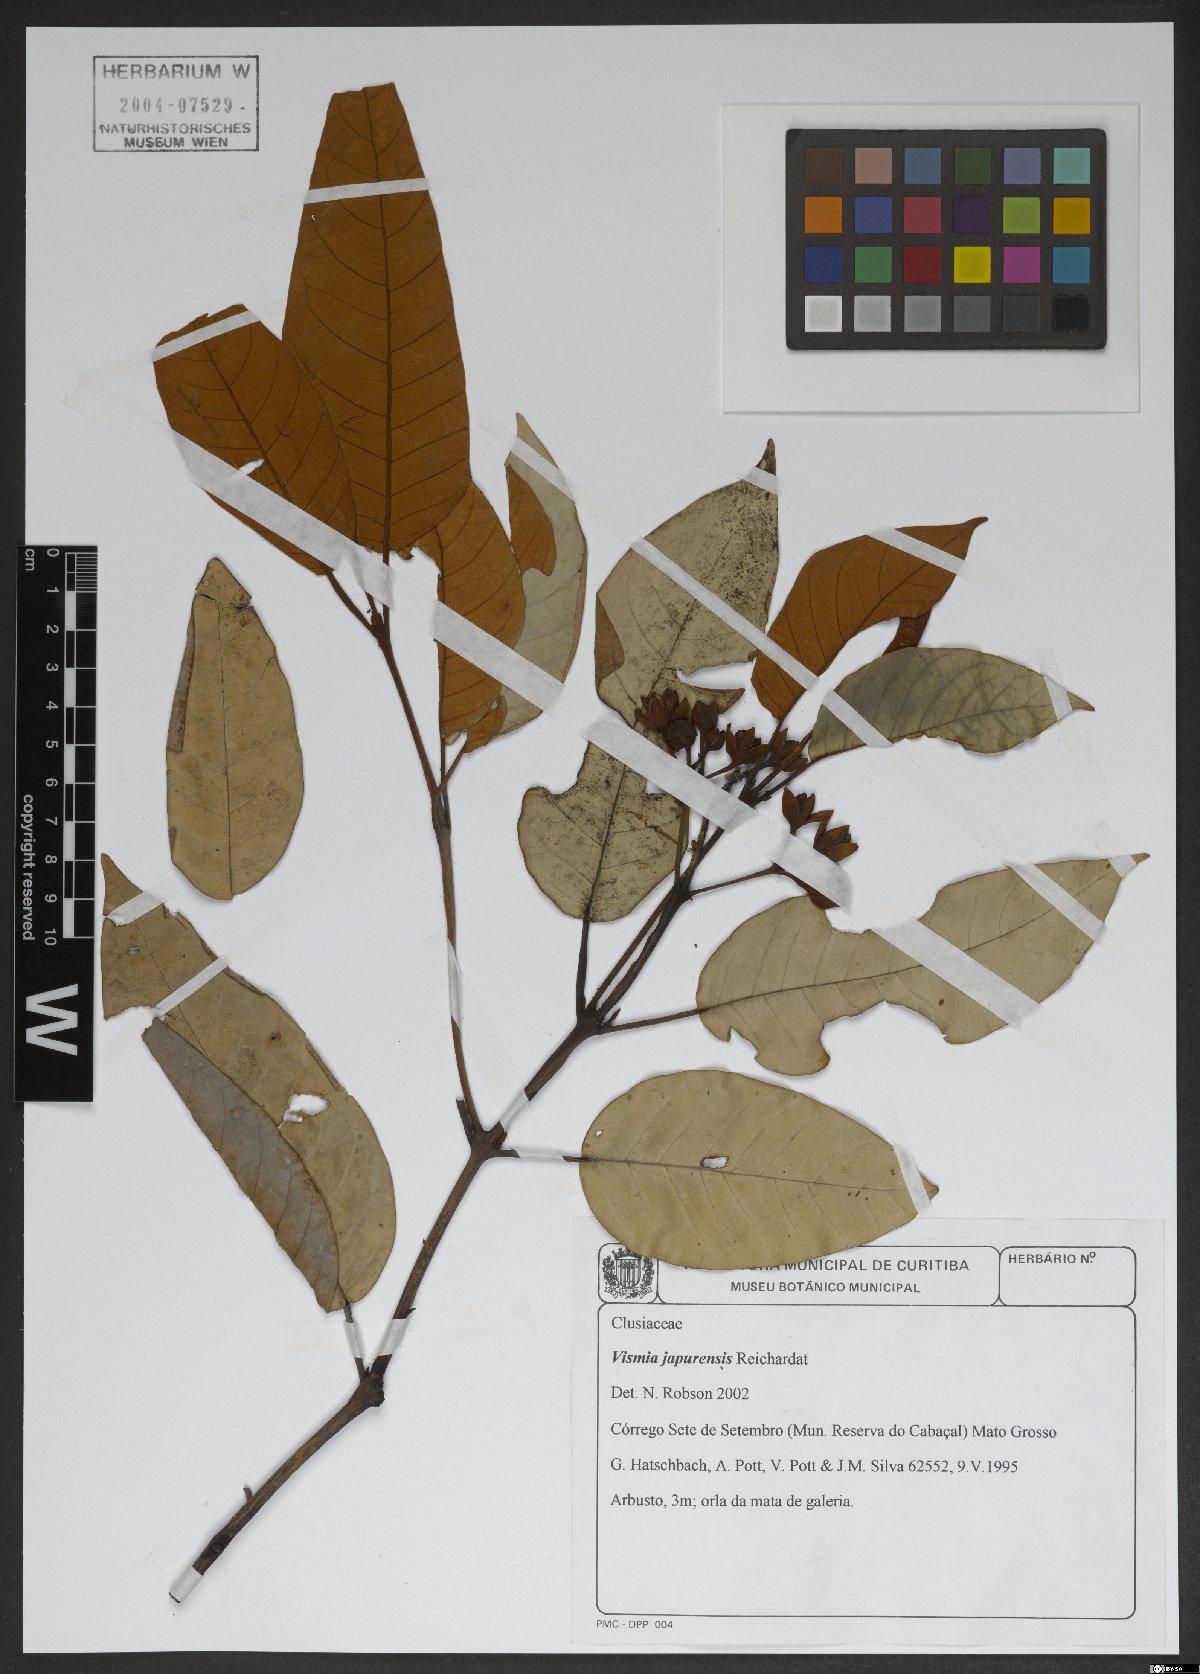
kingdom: Plantae
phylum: Tracheophyta
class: Magnoliopsida
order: Malpighiales
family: Hypericaceae
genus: Vismia
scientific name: Vismia japurensis
